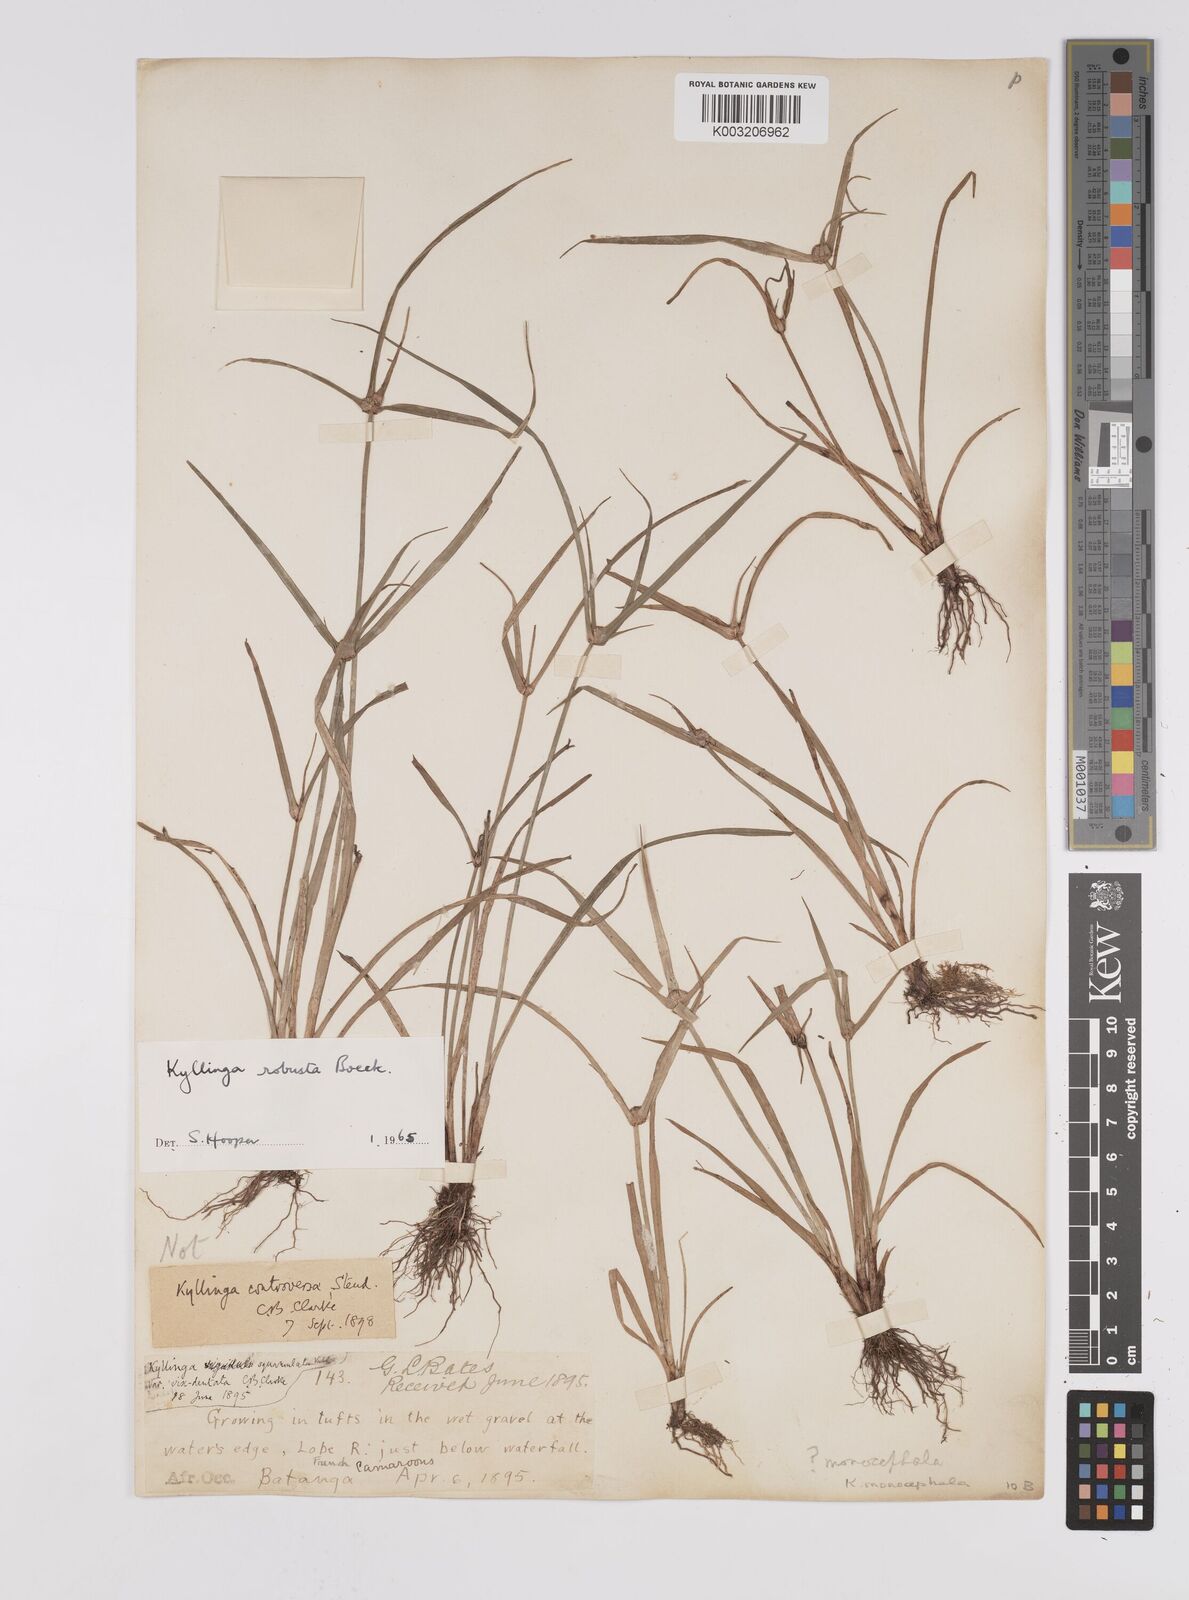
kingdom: Plantae
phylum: Tracheophyta
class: Liliopsida
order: Poales
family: Cyperaceae
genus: Cyperus
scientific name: Cyperus
